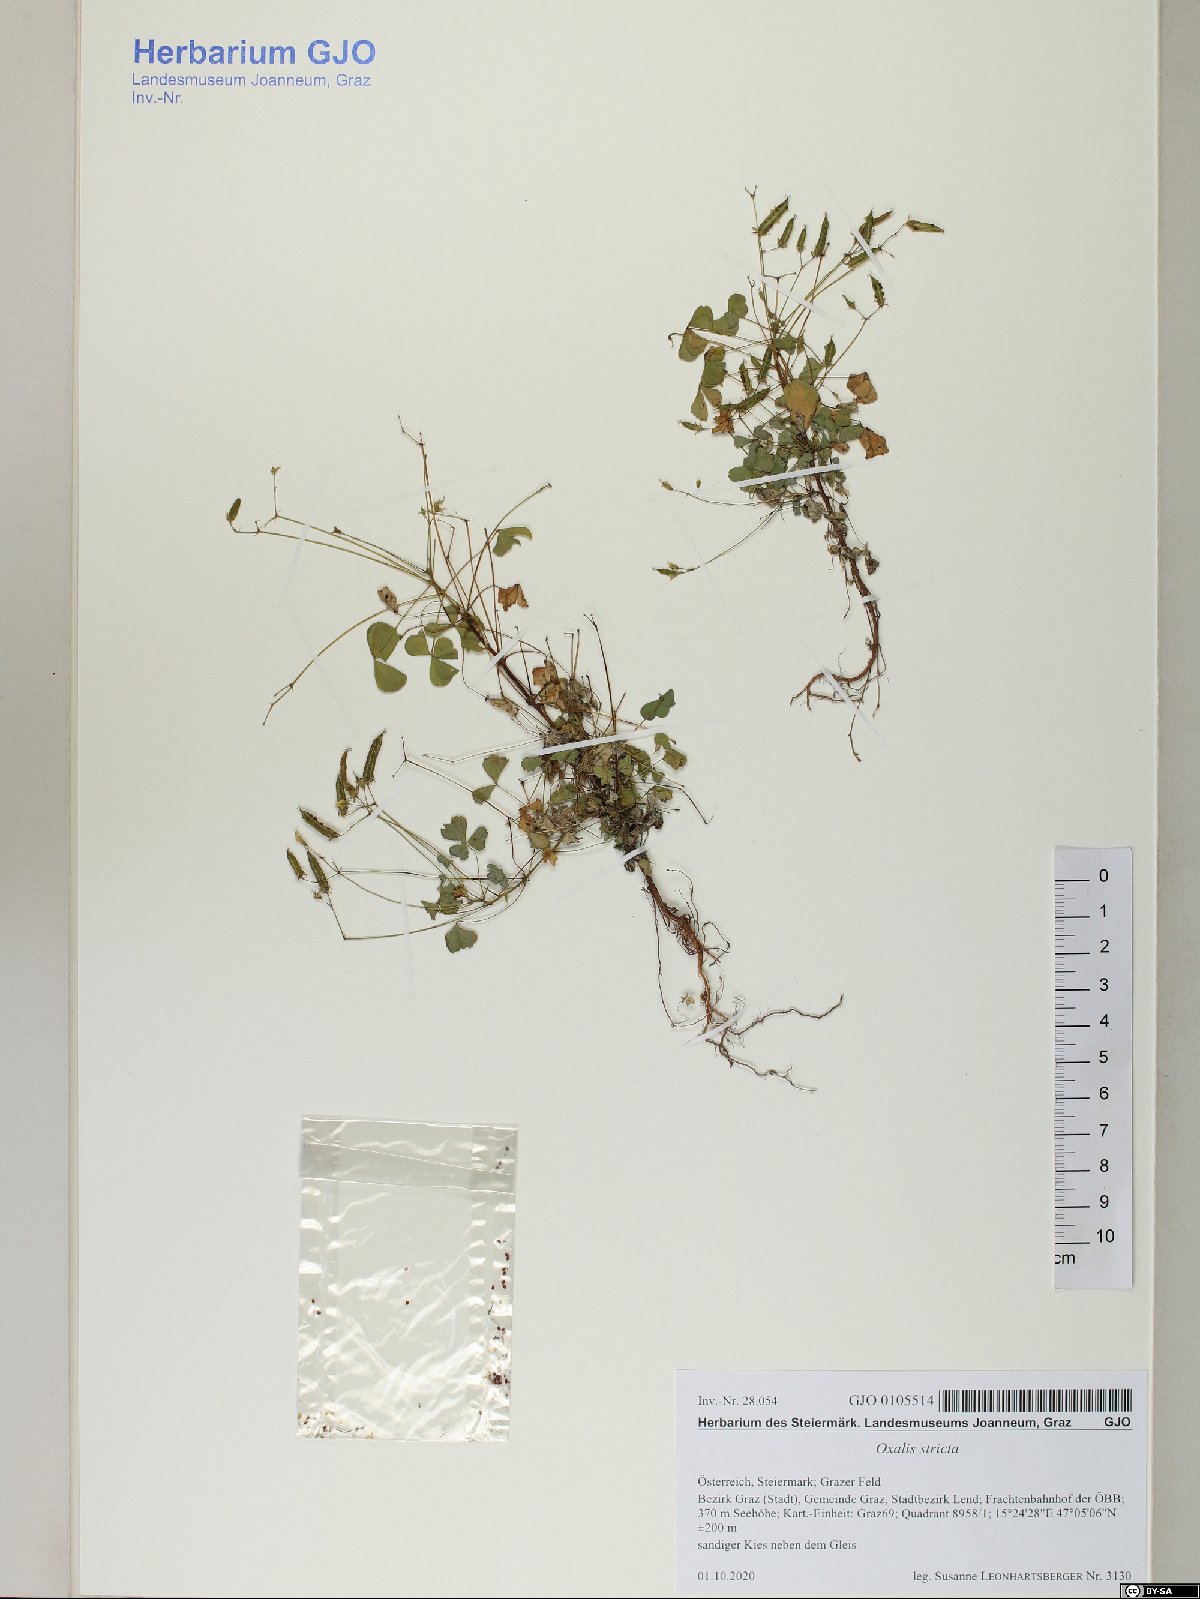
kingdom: Plantae
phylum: Tracheophyta
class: Magnoliopsida
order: Oxalidales
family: Oxalidaceae
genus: Oxalis
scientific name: Oxalis stricta
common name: Upright yellow-sorrel
